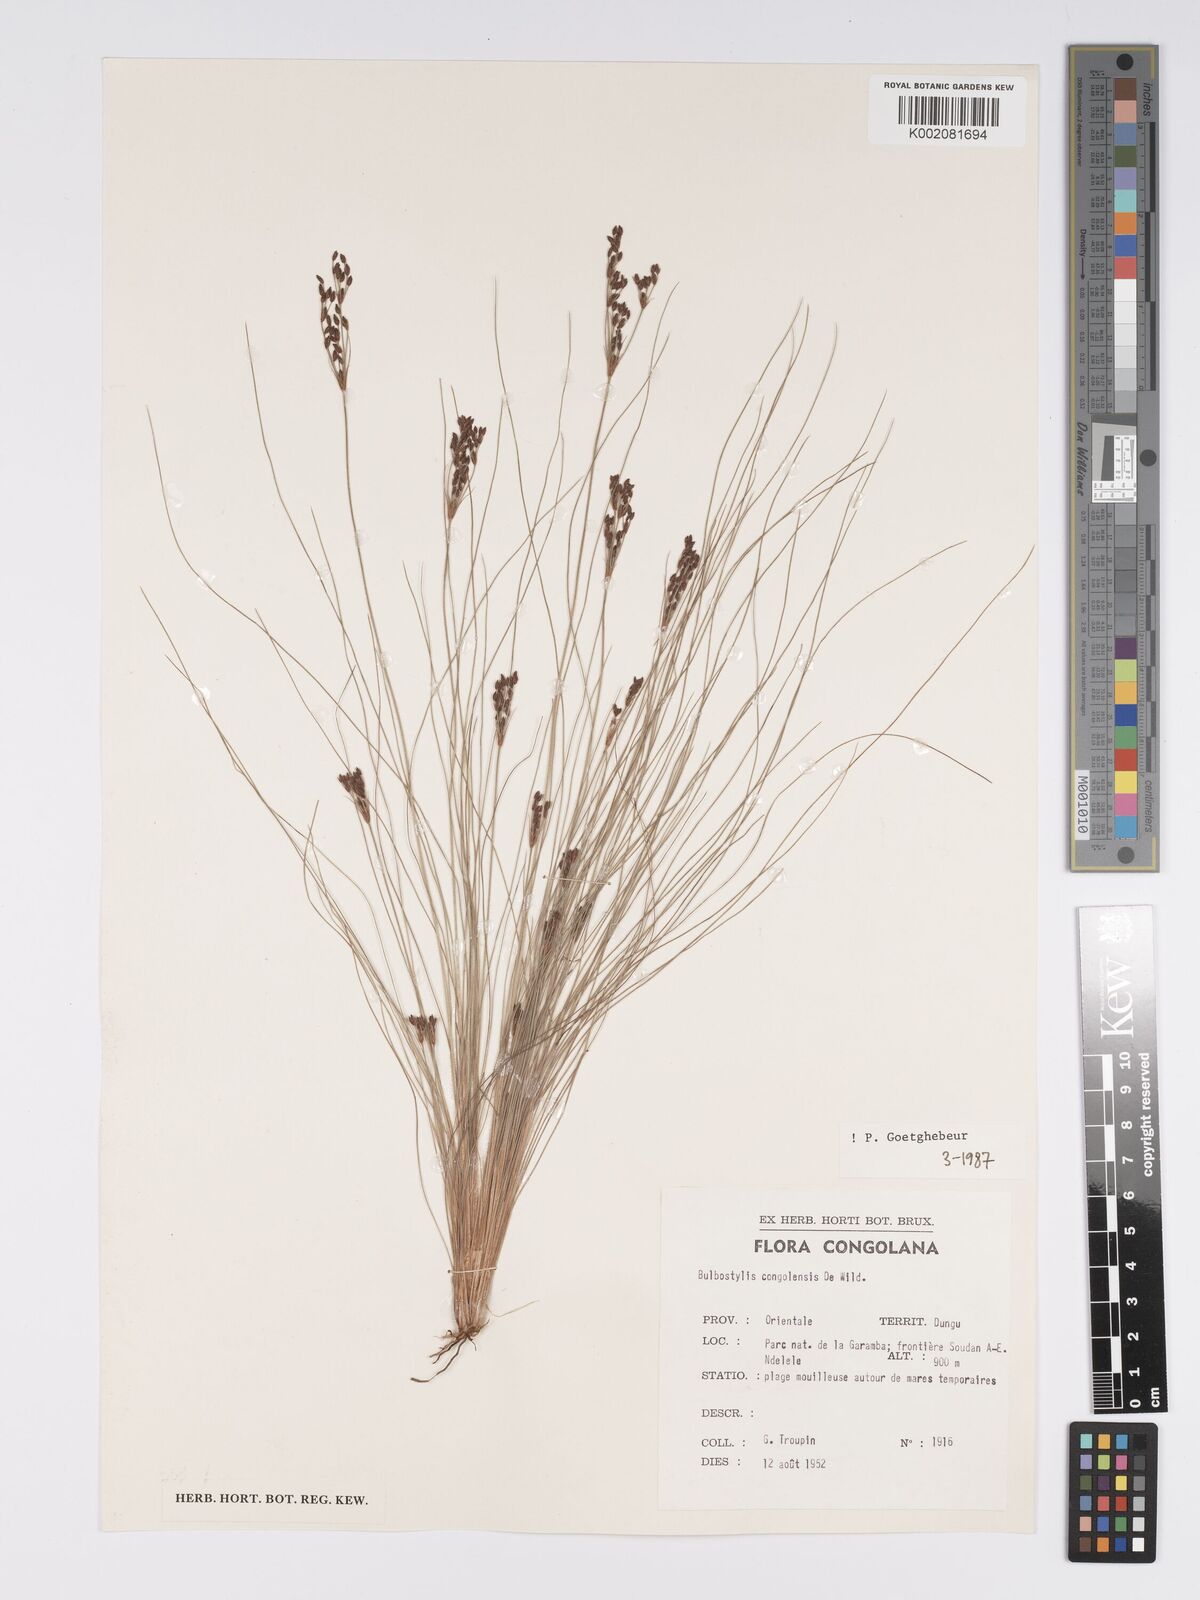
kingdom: Plantae
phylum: Tracheophyta
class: Liliopsida
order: Poales
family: Cyperaceae
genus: Bulbostylis
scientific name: Bulbostylis congolensis
